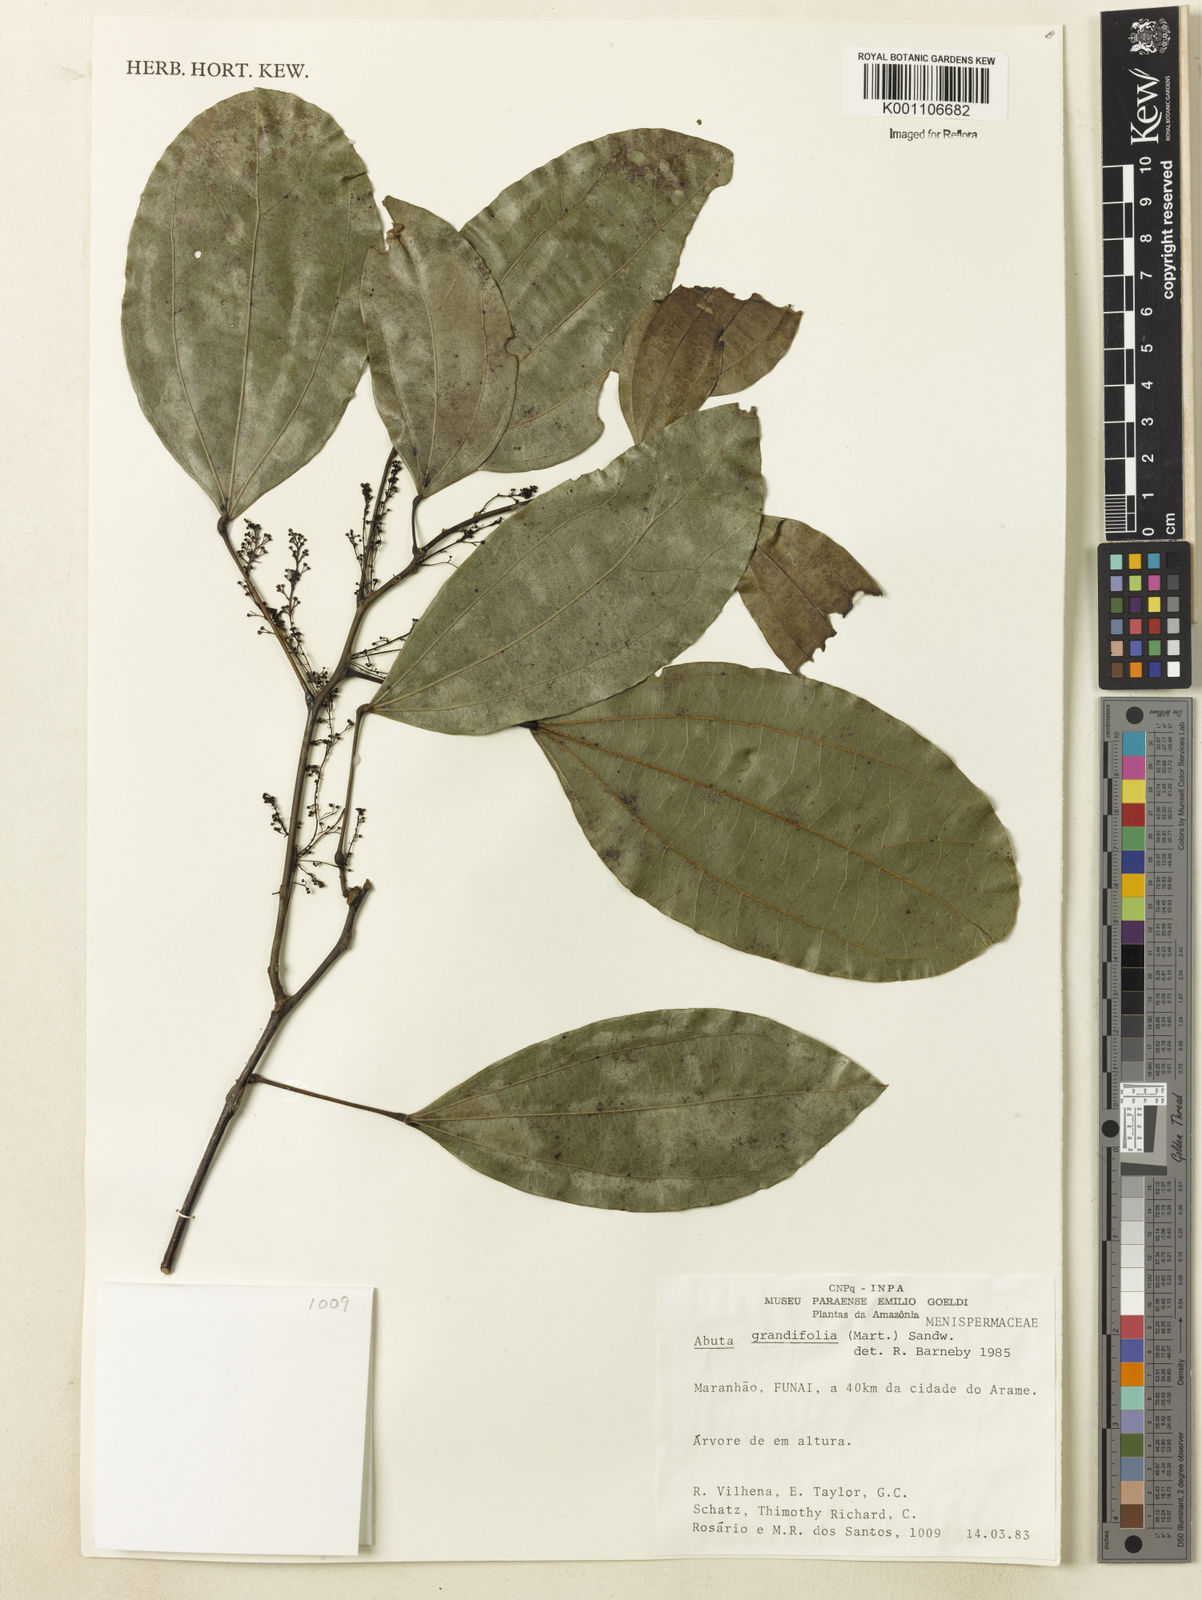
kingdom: Plantae
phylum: Tracheophyta
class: Magnoliopsida
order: Ranunculales
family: Menispermaceae
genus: Abuta
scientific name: Abuta grandifolia
